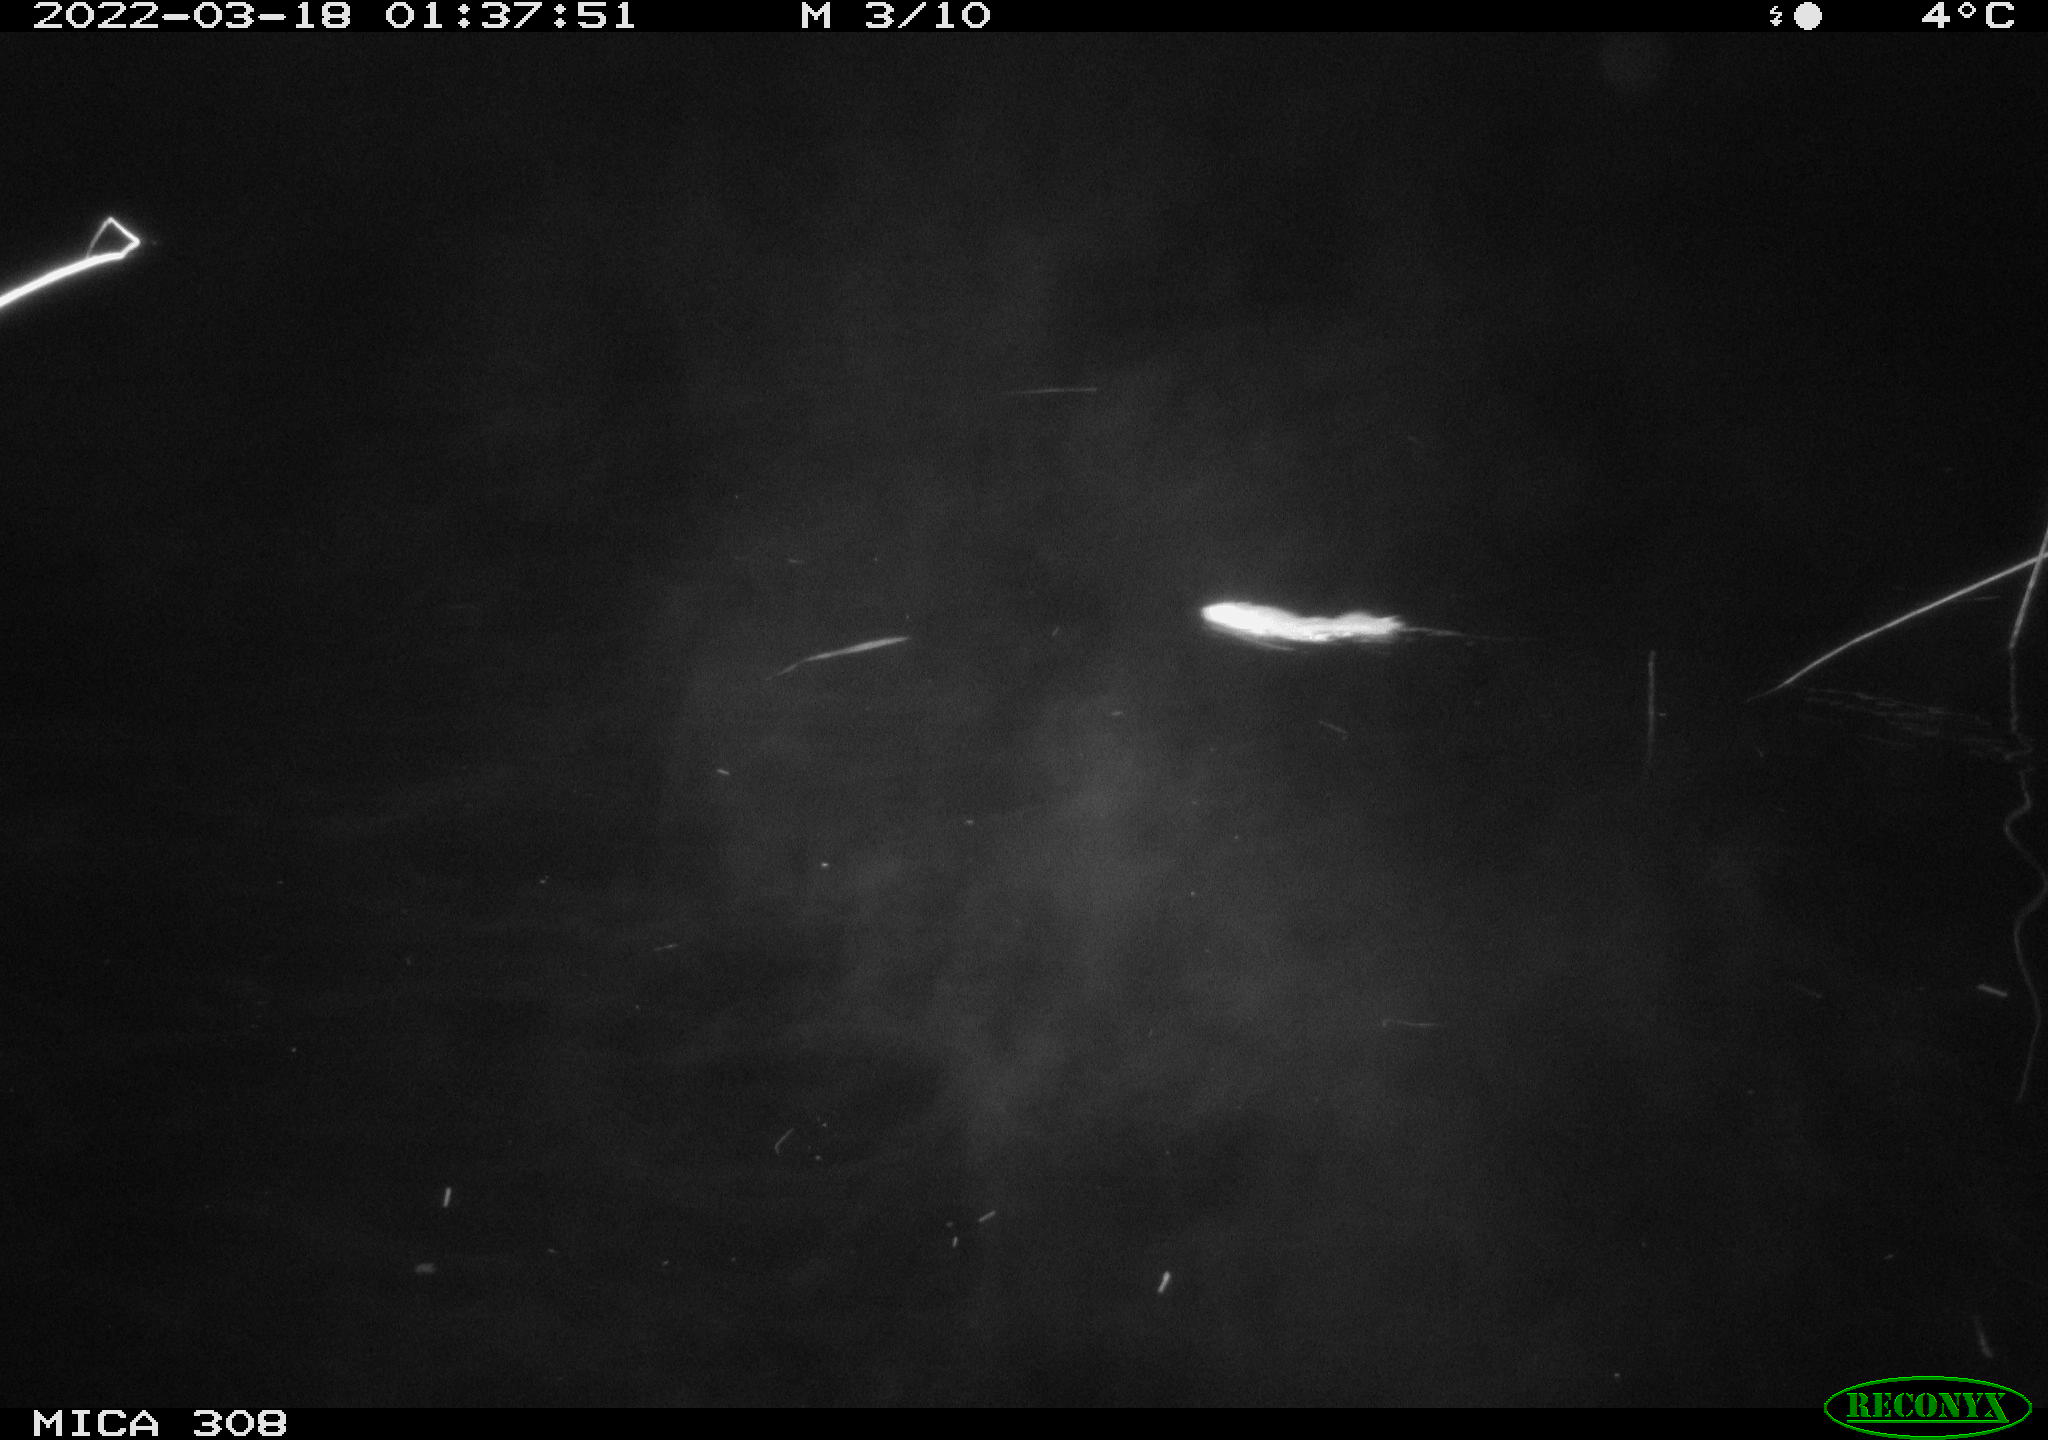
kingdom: Animalia
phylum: Chordata
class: Mammalia
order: Rodentia
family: Muridae
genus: Rattus
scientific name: Rattus norvegicus
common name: Brown rat
